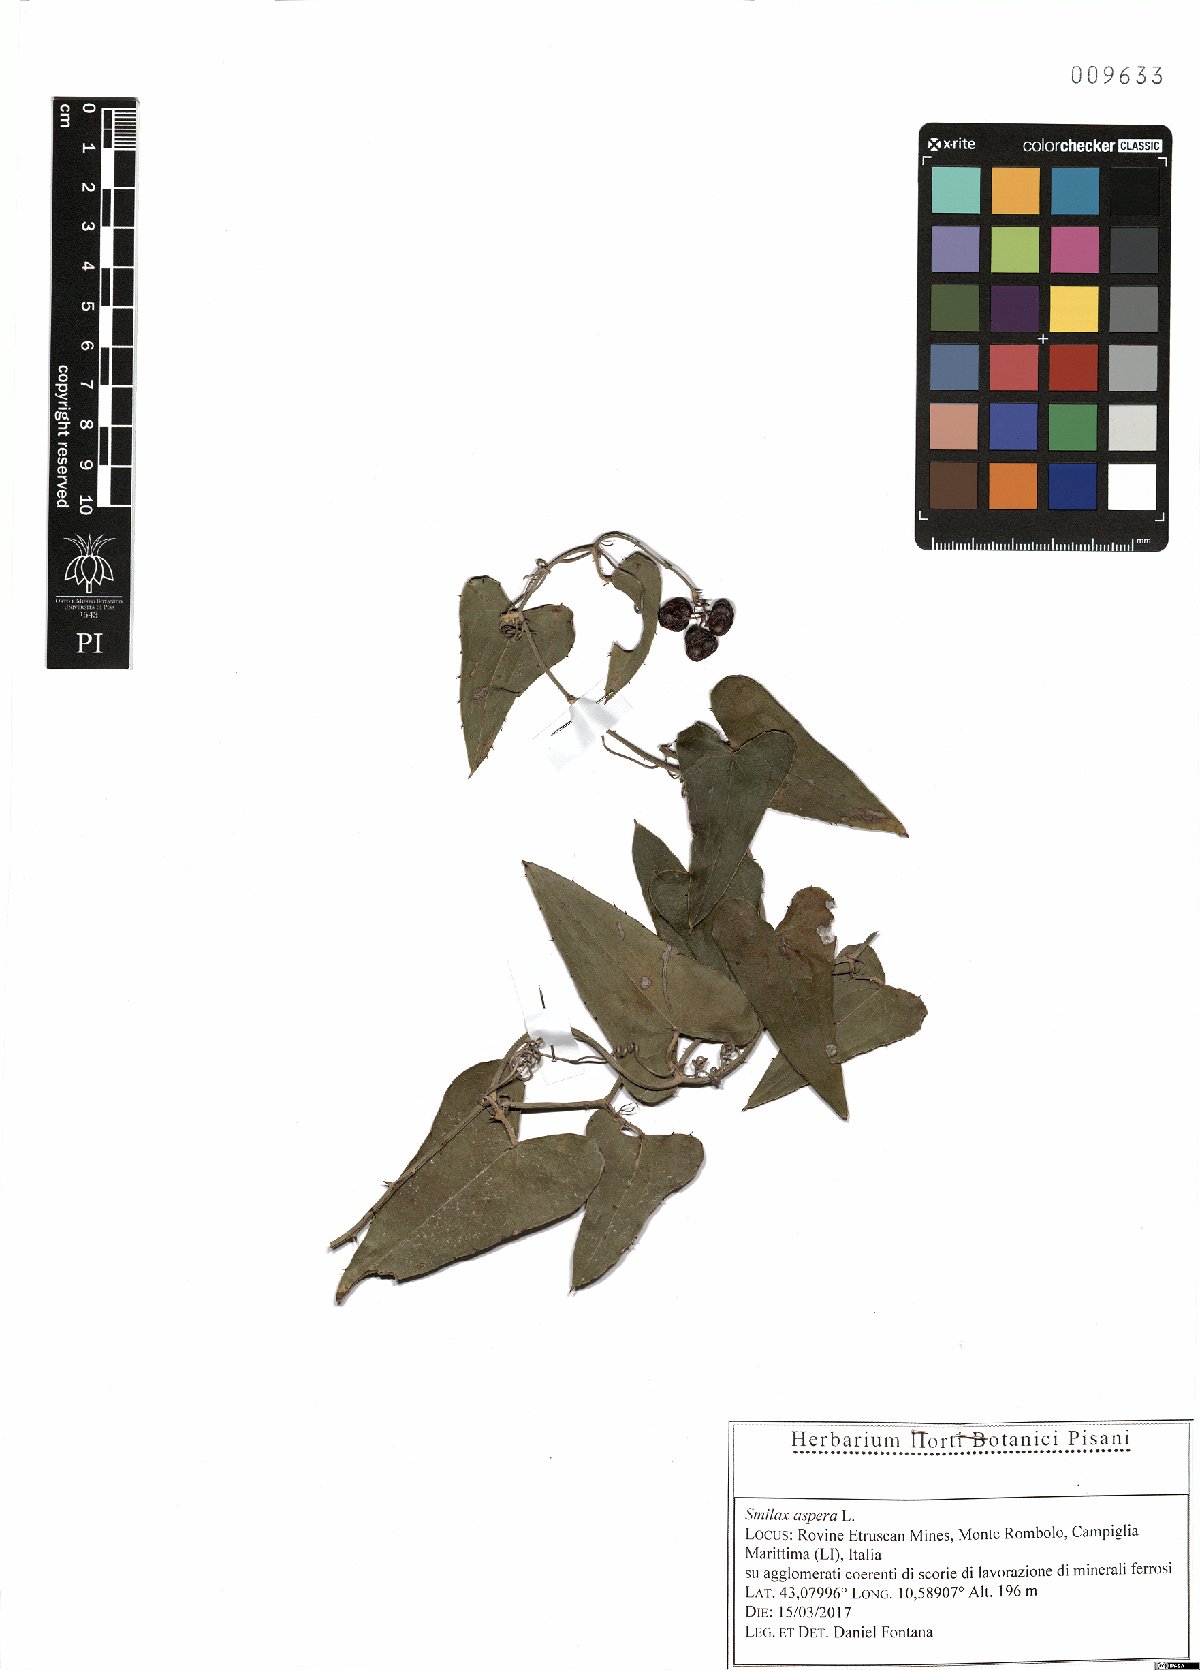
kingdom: Plantae
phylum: Tracheophyta
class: Liliopsida
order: Liliales
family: Smilacaceae
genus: Smilax
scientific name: Smilax aspera
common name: Common smilax
